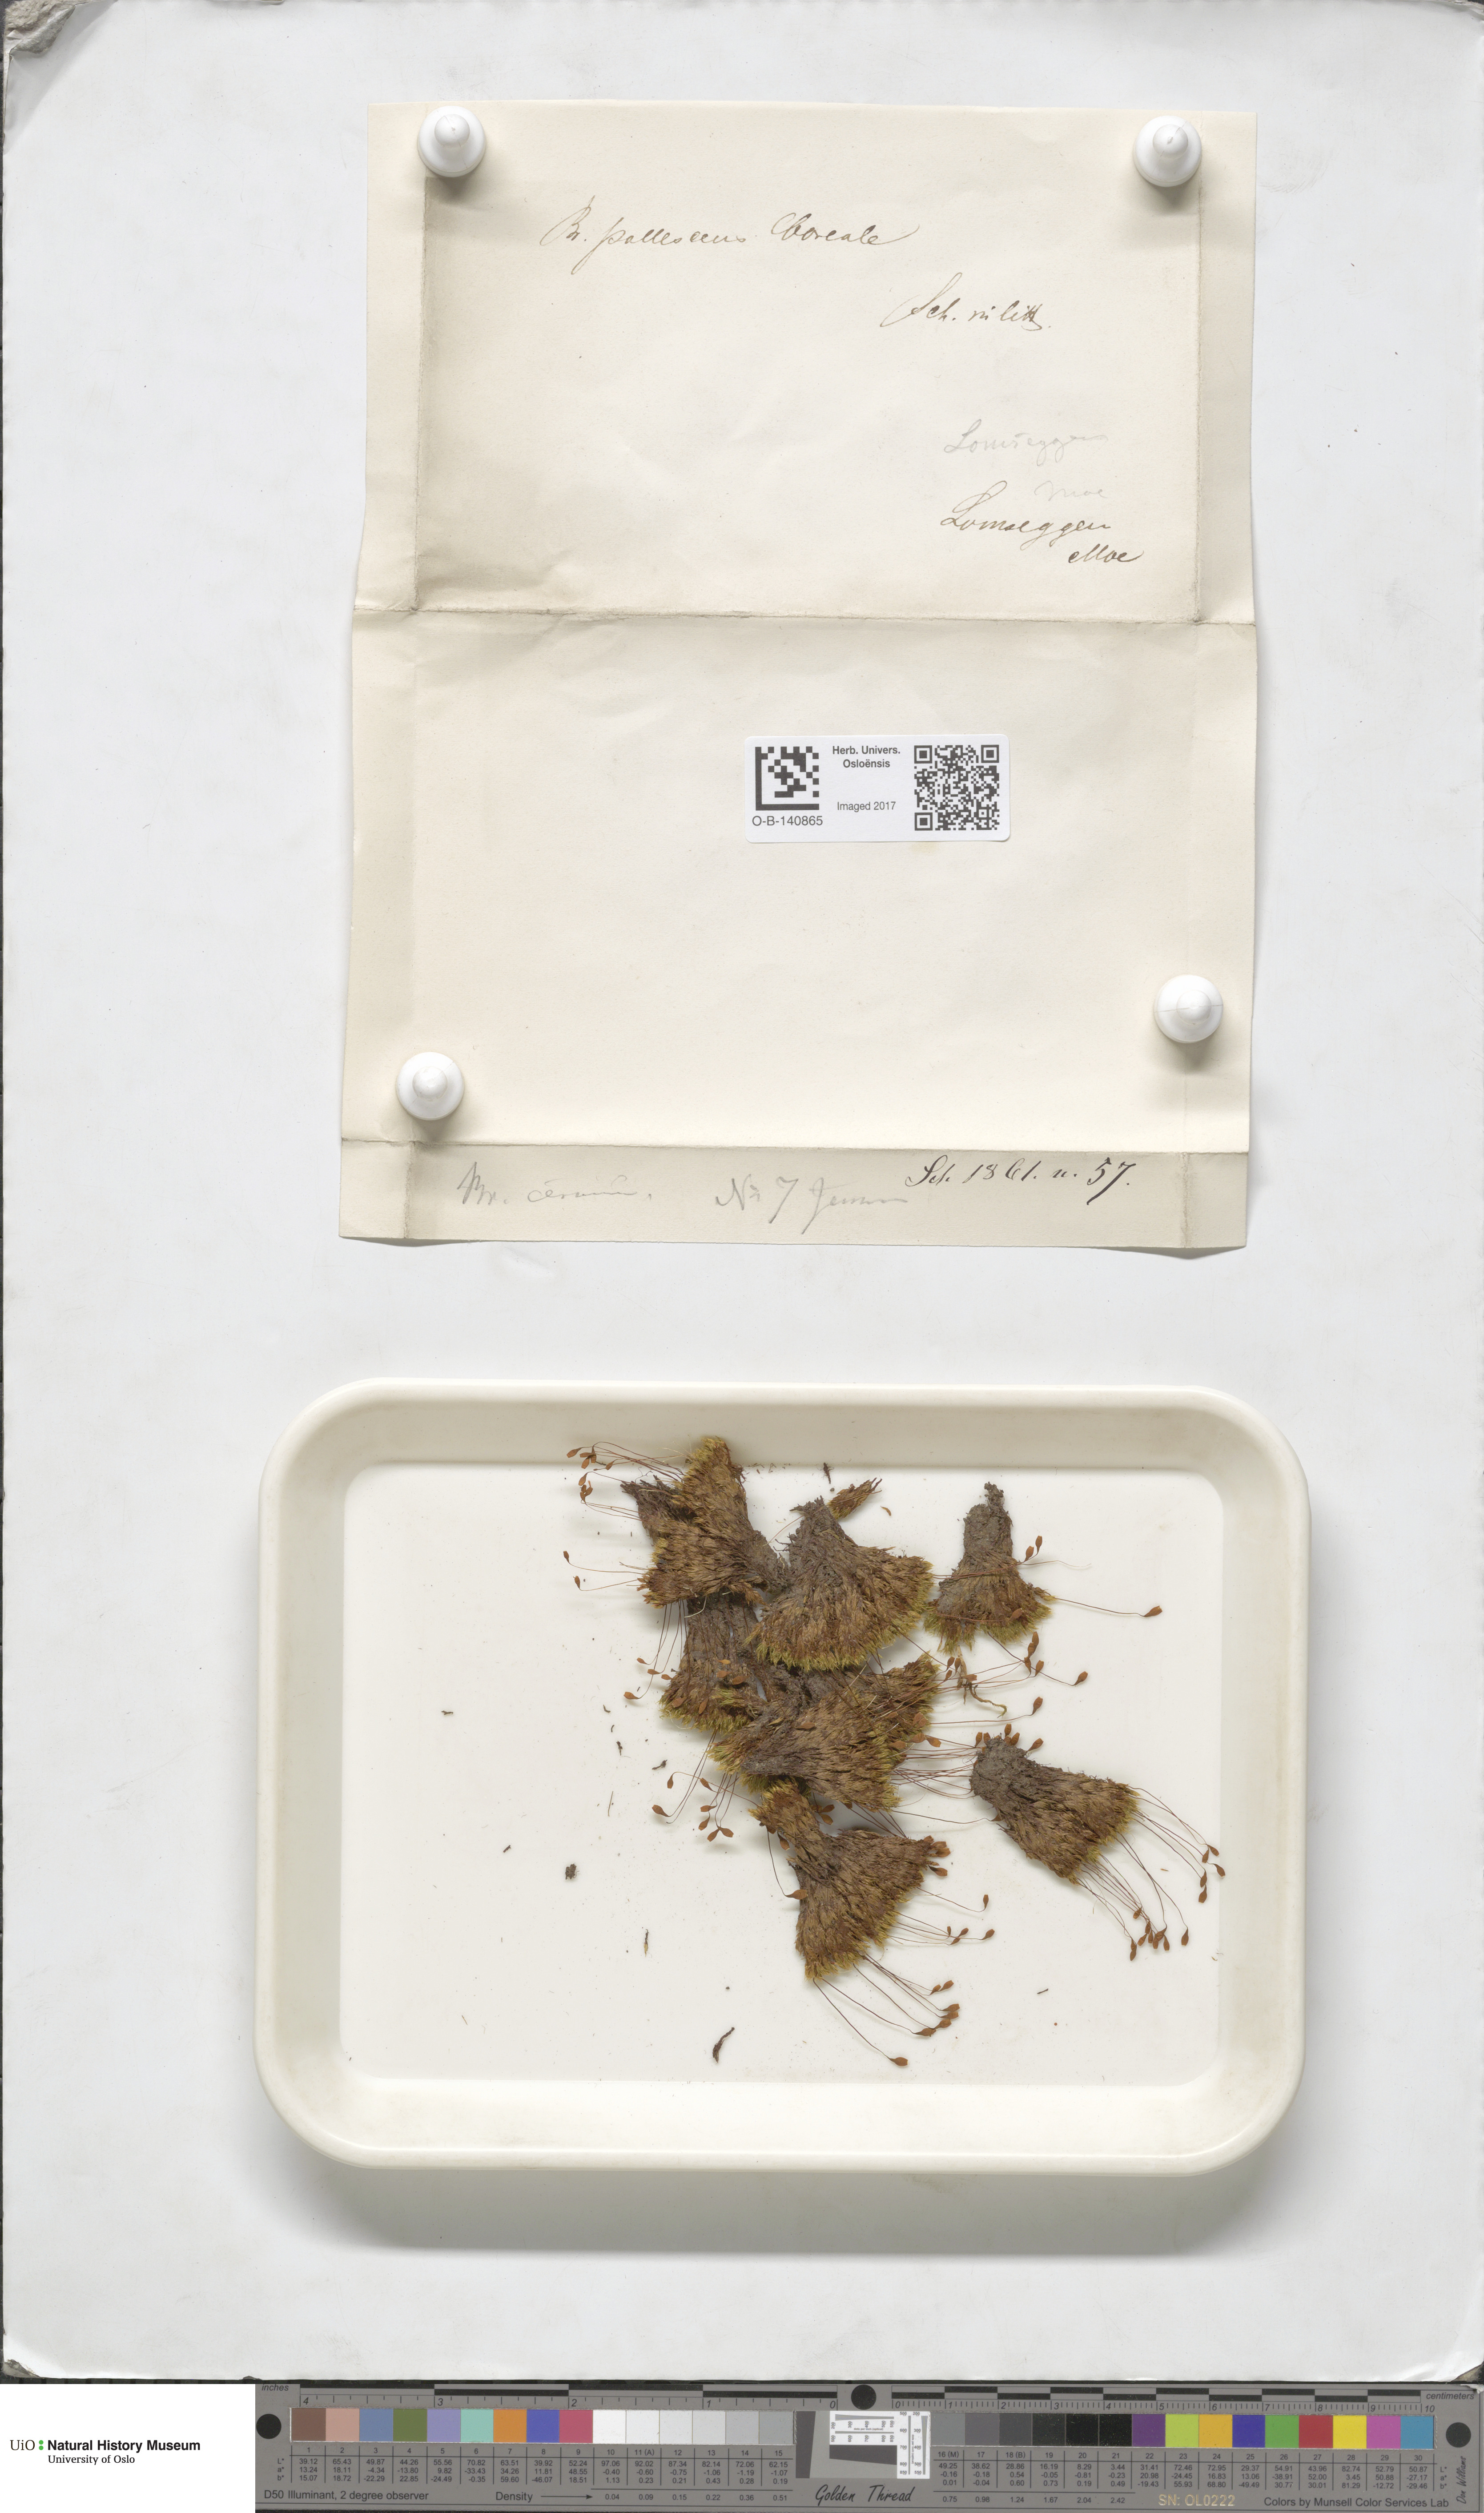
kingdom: Plantae
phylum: Bryophyta
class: Bryopsida
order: Bryales
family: Bryaceae
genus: Ptychostomum
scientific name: Ptychostomum pallescens
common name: Tall-clustered thread-moss
